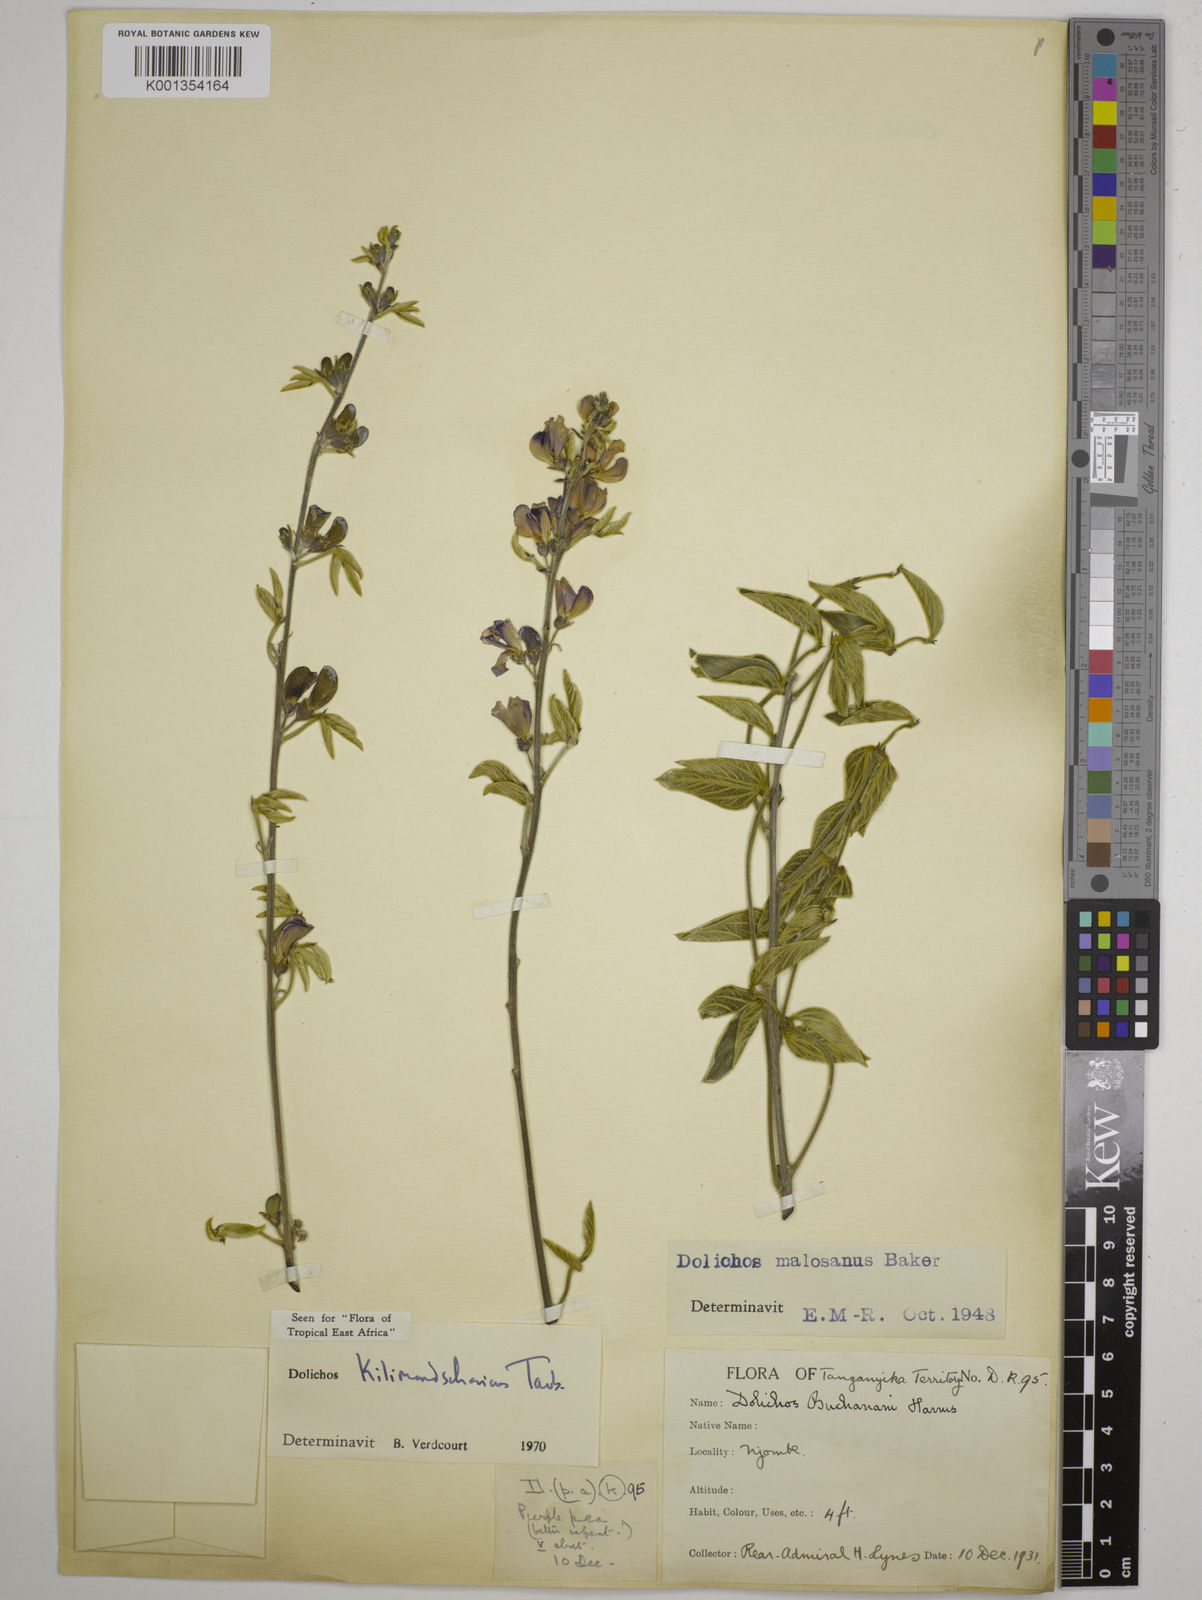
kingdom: Plantae
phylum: Tracheophyta
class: Magnoliopsida
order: Fabales
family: Fabaceae
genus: Dolichos
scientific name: Dolichos kilimandscharicus
